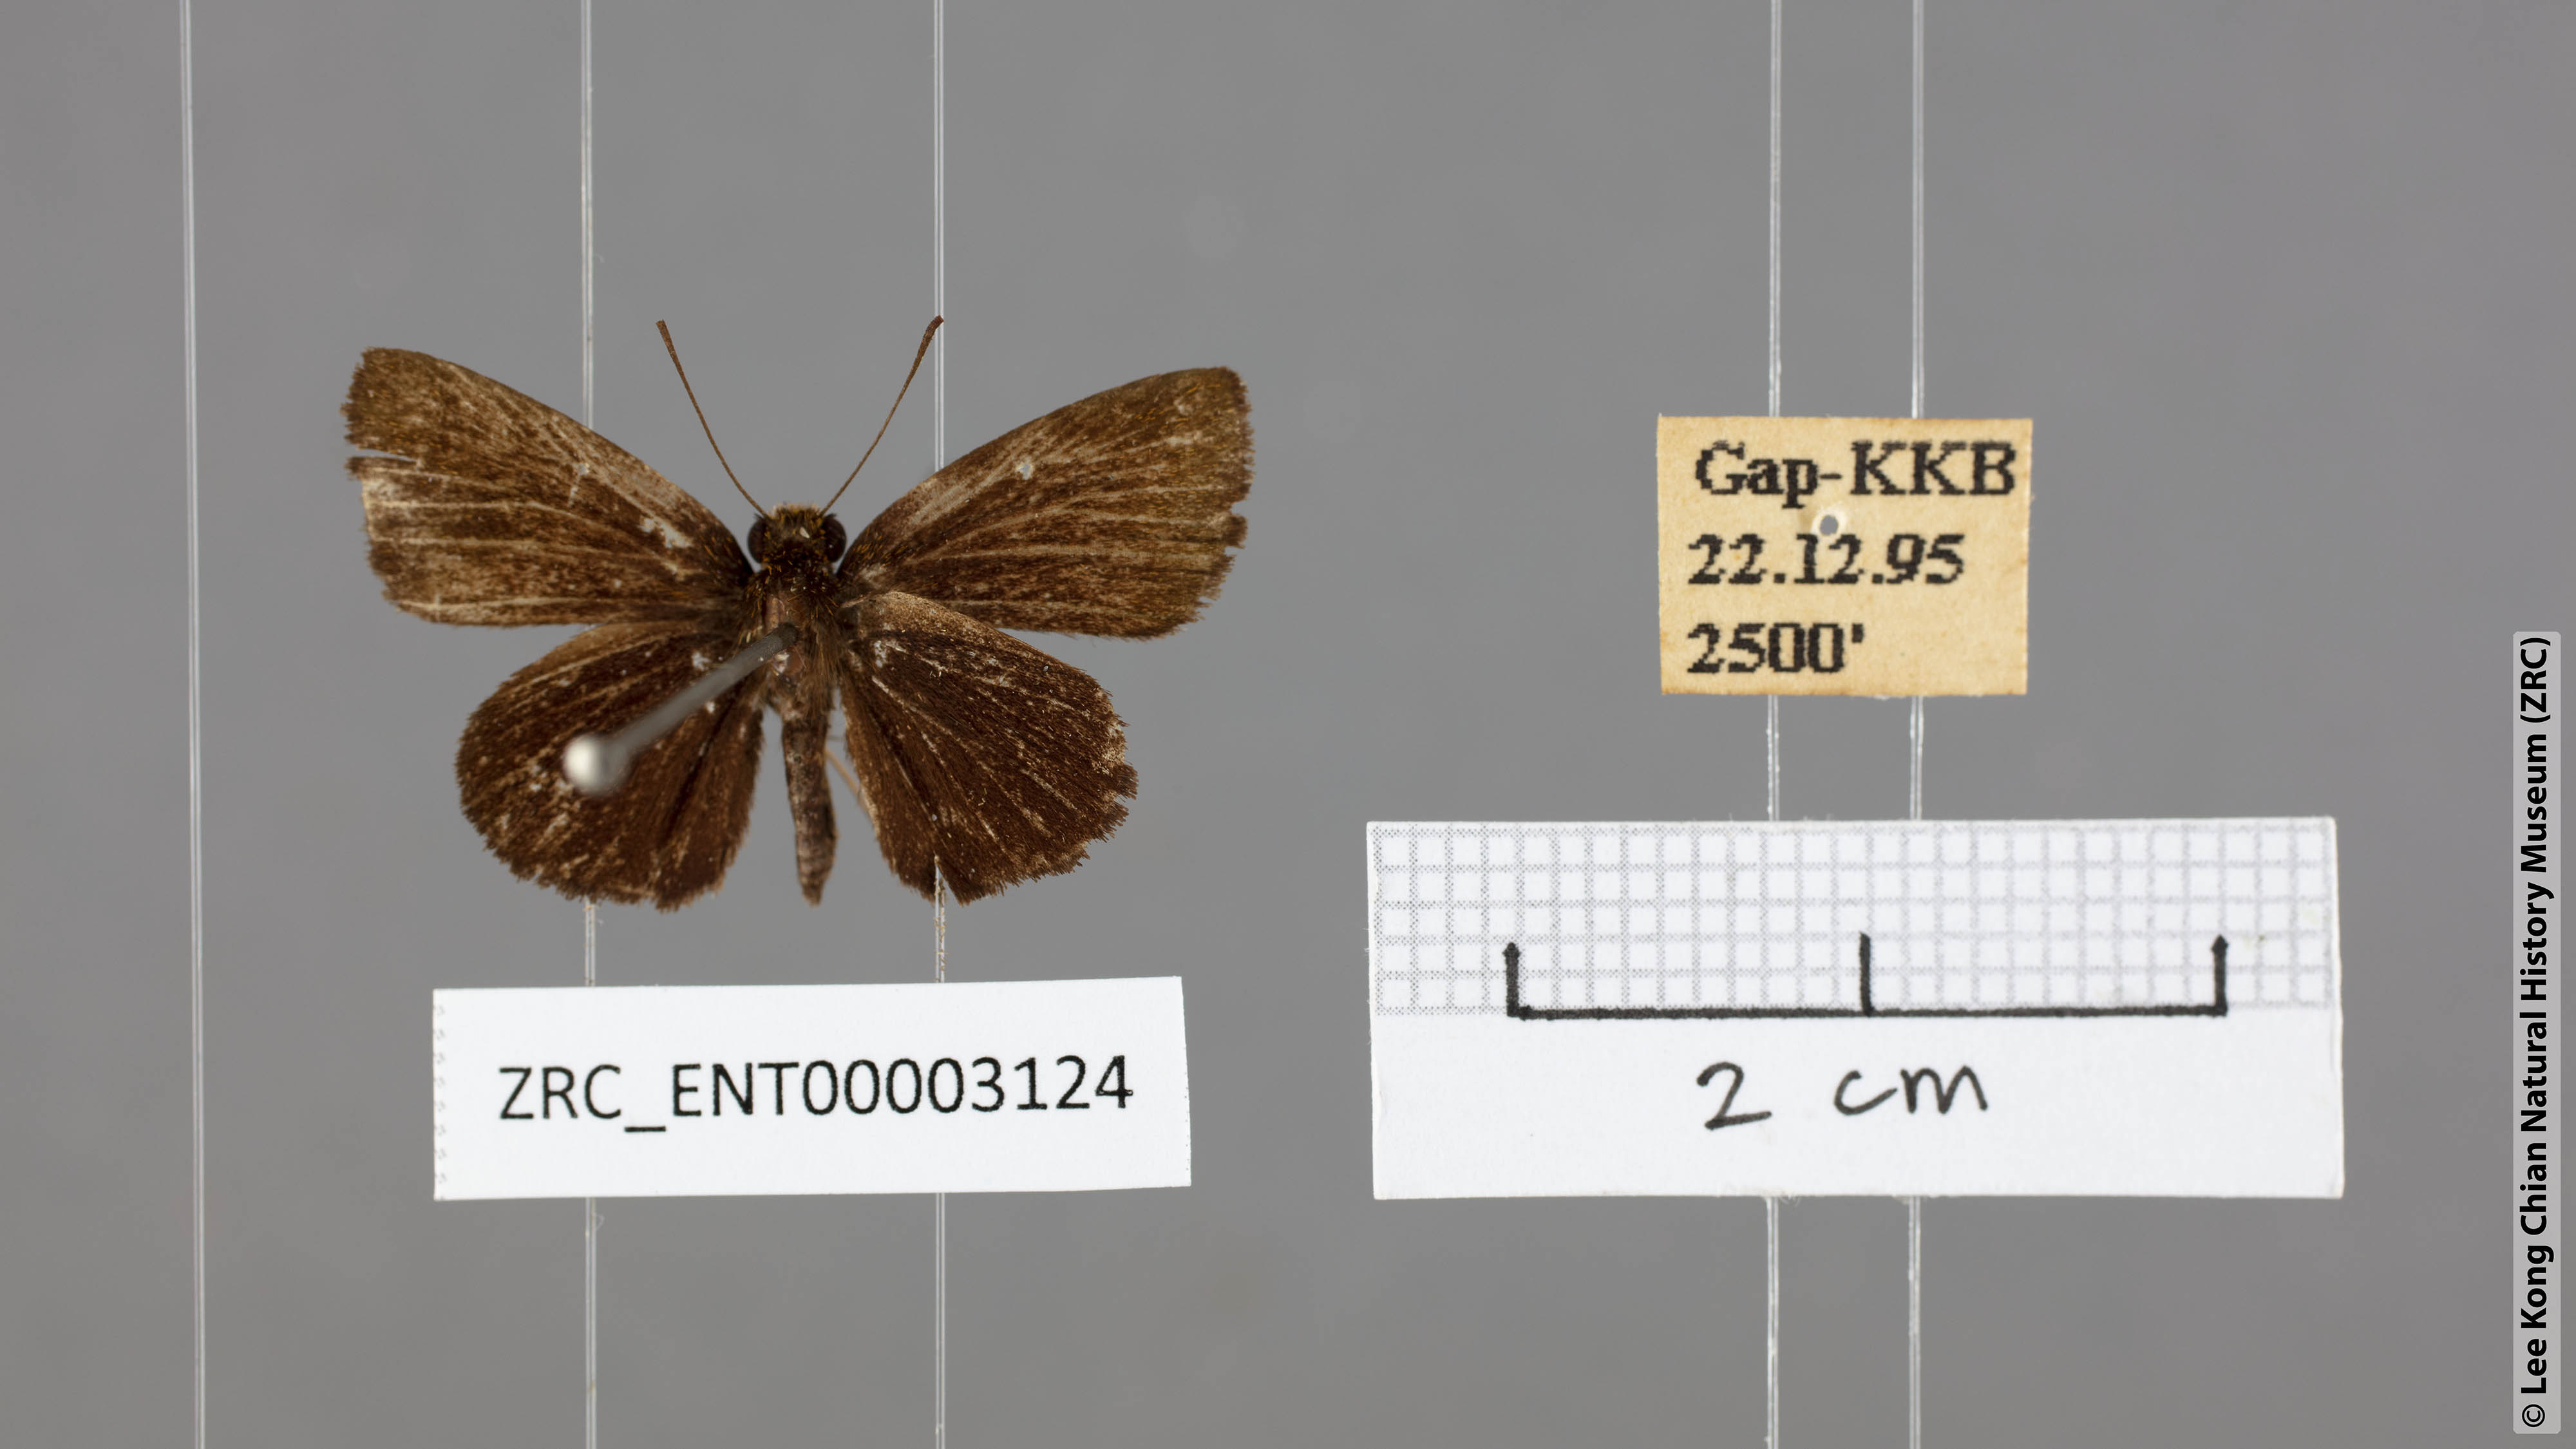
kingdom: Animalia
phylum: Arthropoda
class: Insecta
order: Lepidoptera
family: Hesperiidae
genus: Arnetta
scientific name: Arnetta verones
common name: Sumatran bob
